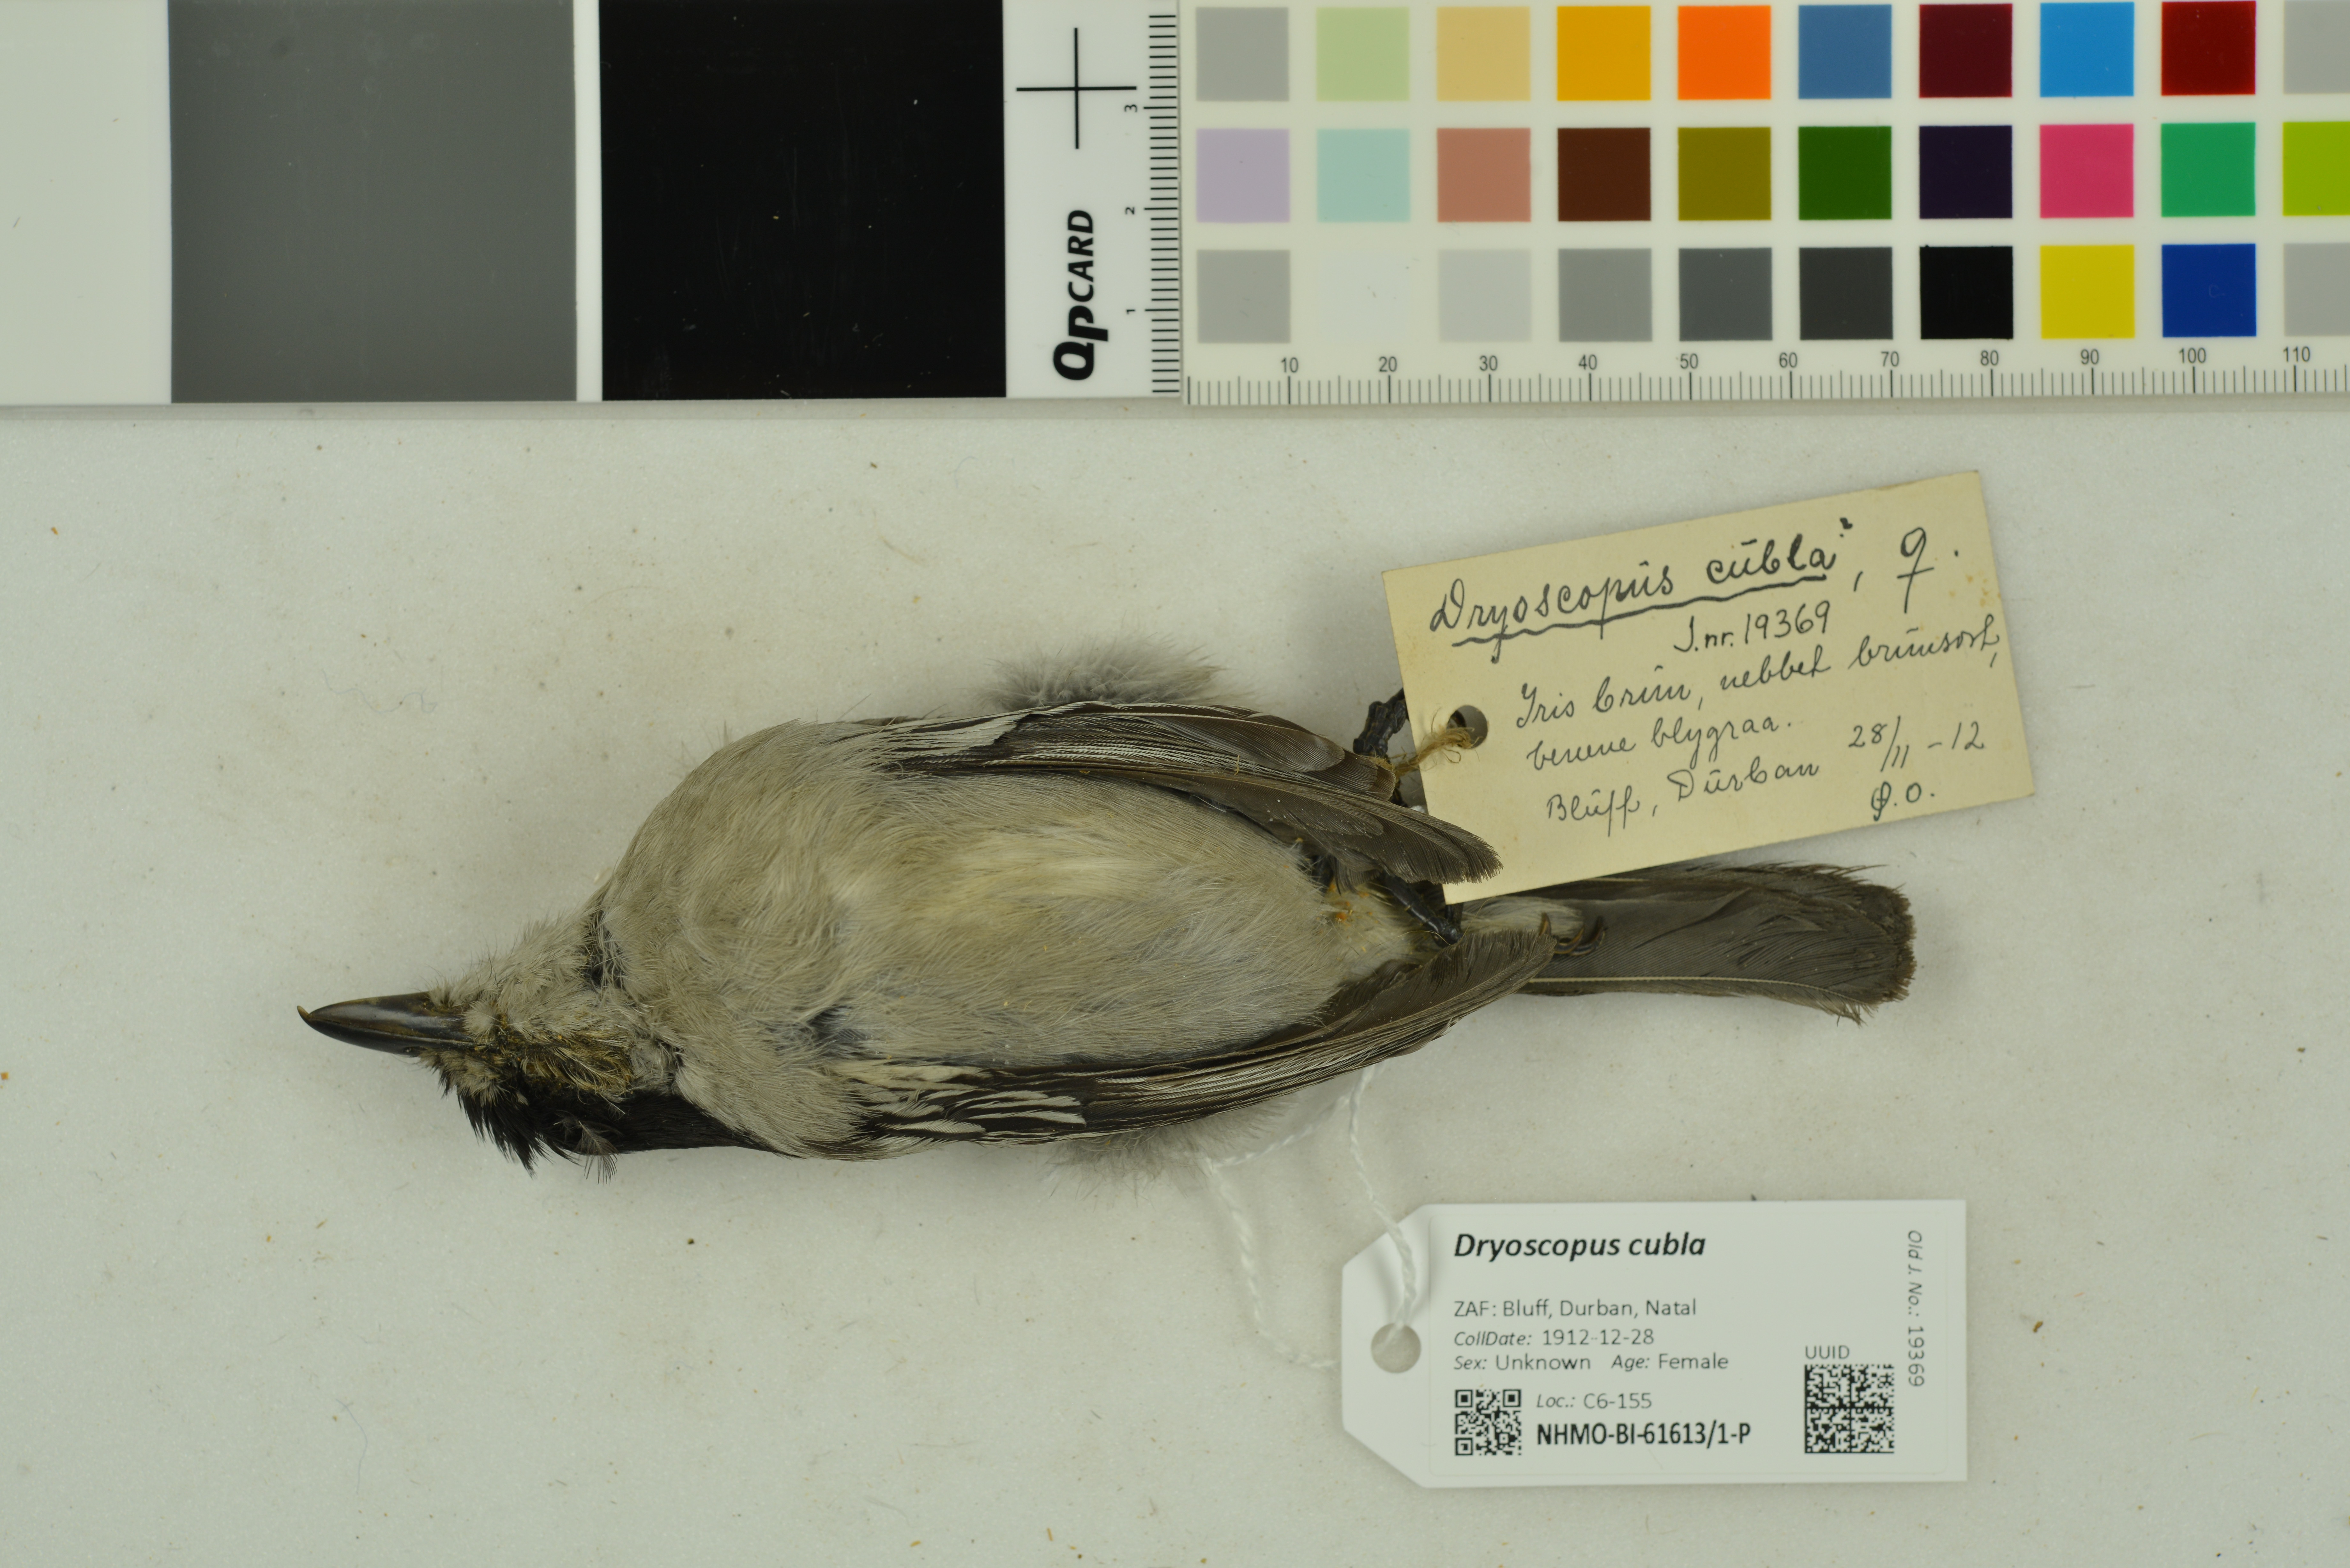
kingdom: Animalia
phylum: Chordata
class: Aves
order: Passeriformes
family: Malaconotidae
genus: Dryoscopus
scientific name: Dryoscopus cubla
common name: Black-backed puffback
